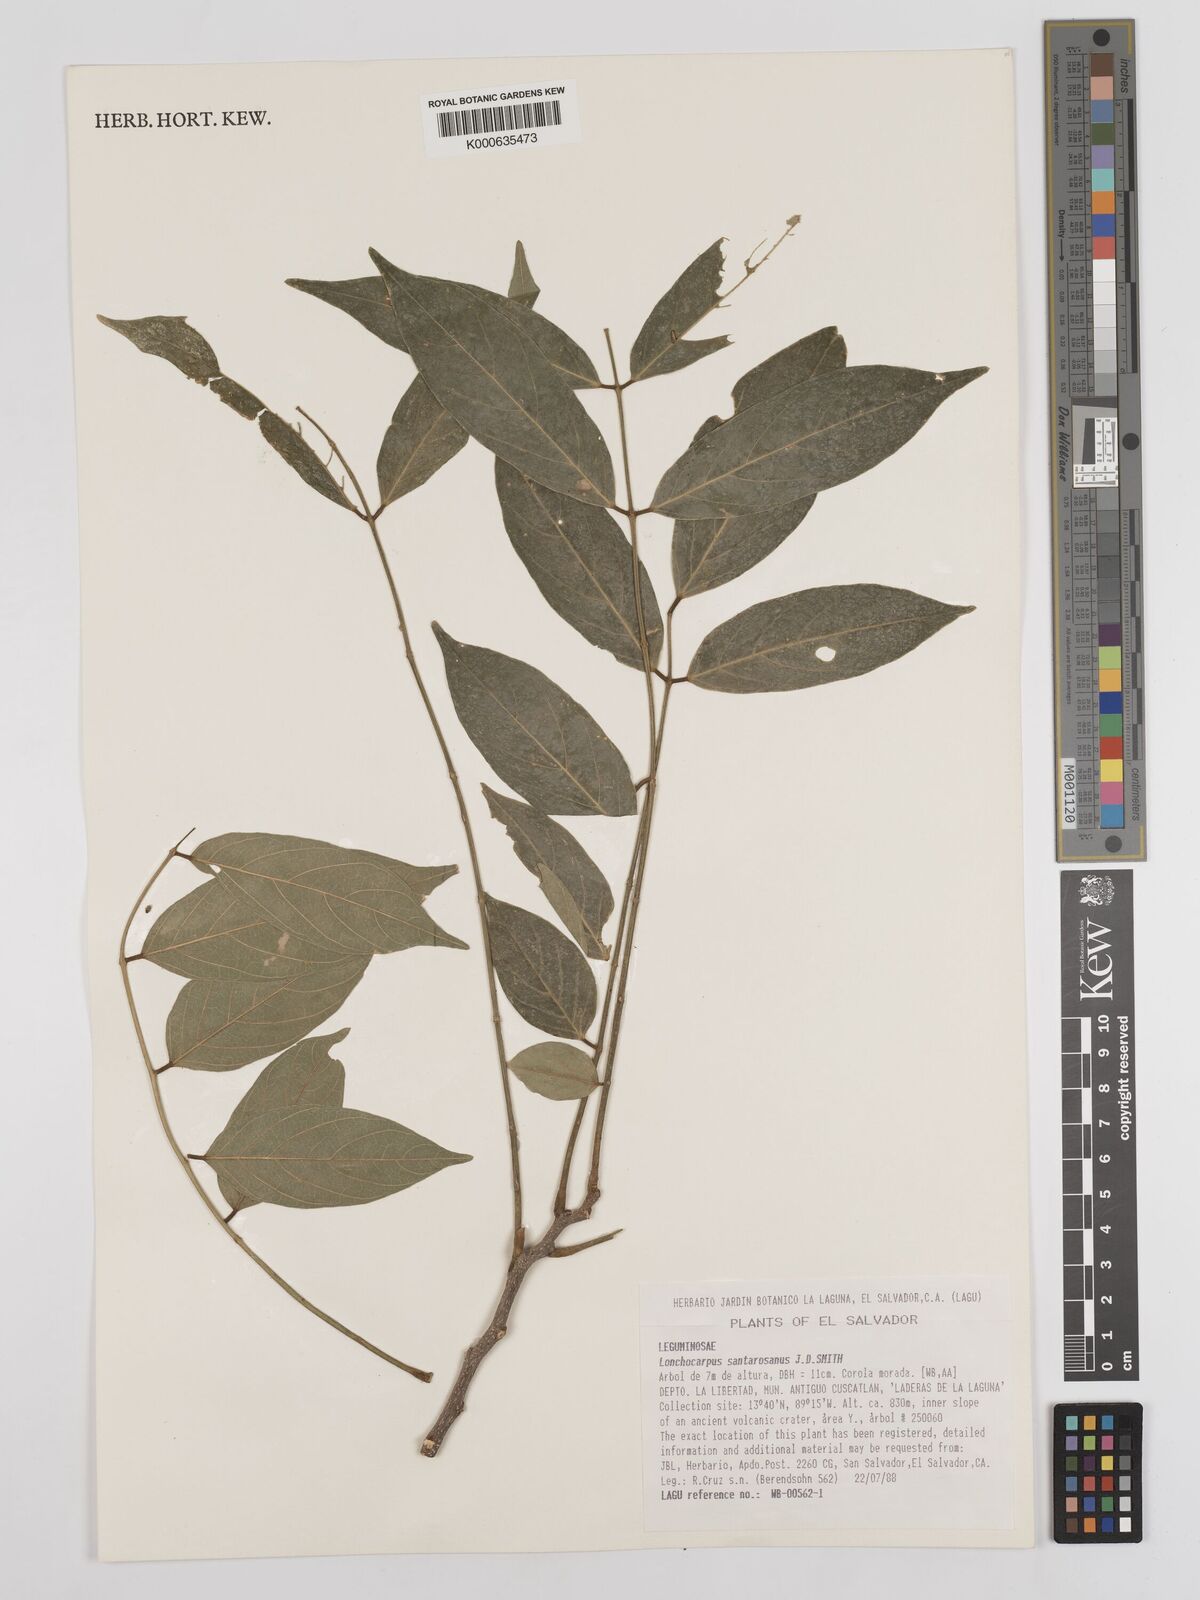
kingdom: Plantae
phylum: Tracheophyta
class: Magnoliopsida
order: Fabales
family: Fabaceae
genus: Lonchocarpus
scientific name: Lonchocarpus santarosanus
